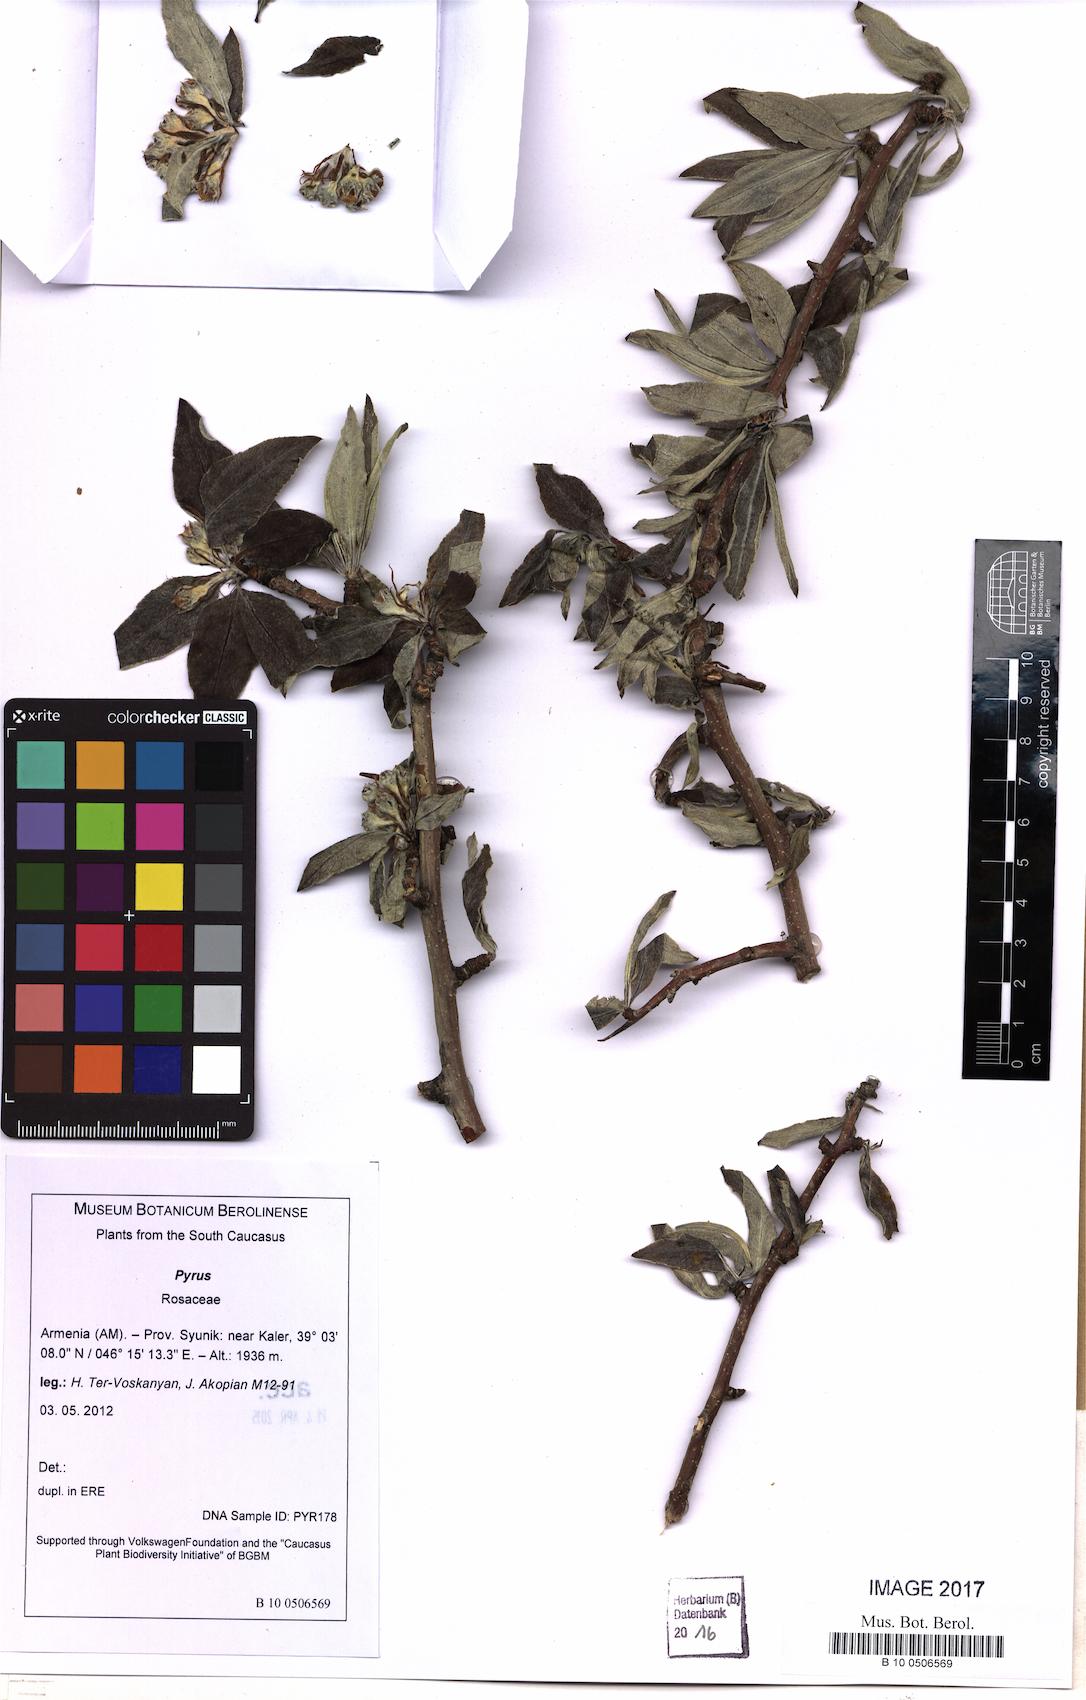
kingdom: Plantae
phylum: Tracheophyta
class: Magnoliopsida
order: Rosales
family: Rosaceae
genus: Pyrus
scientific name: Pyrus
